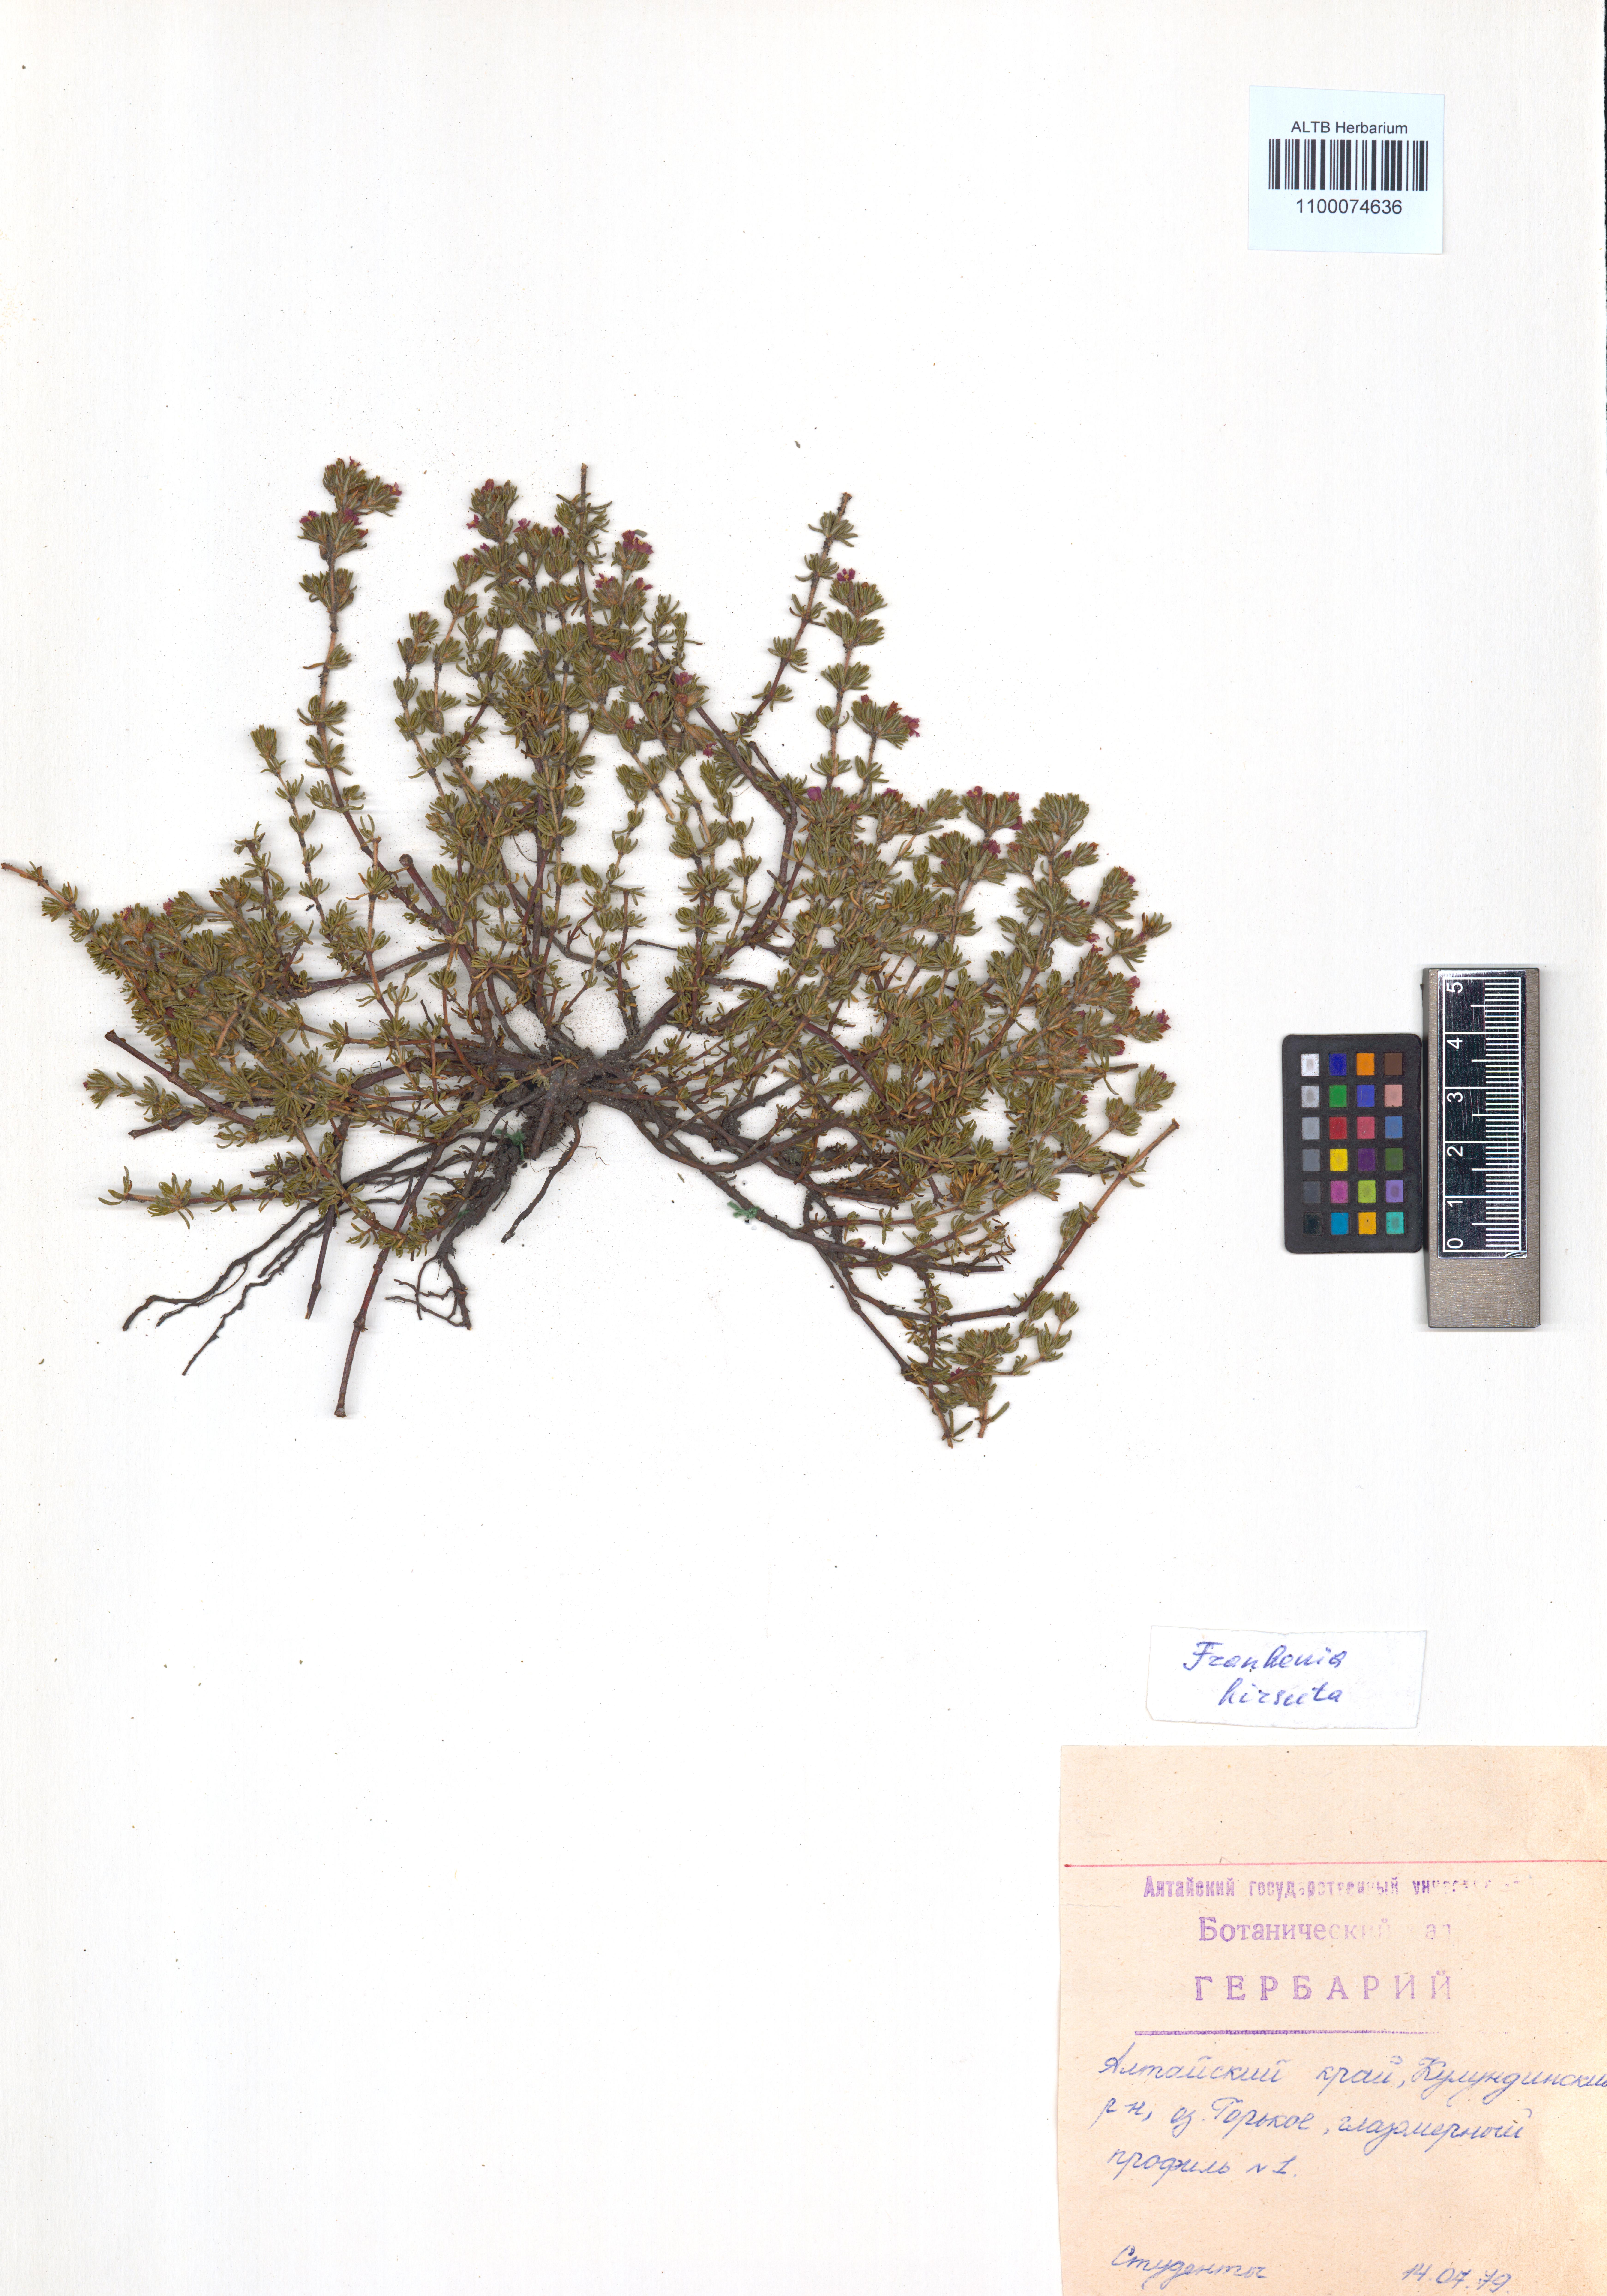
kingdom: Plantae
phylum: Tracheophyta
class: Magnoliopsida
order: Caryophyllales
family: Frankeniaceae
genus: Frankenia
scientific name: Frankenia hirsuta
